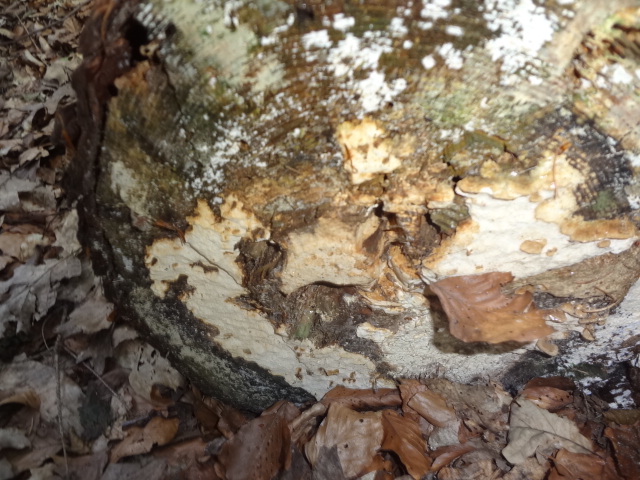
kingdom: Fungi
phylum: Basidiomycota
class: Agaricomycetes
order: Polyporales
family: Fomitopsidaceae
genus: Neoantrodia
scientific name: Neoantrodia serialis
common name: række-sejporesvamp
